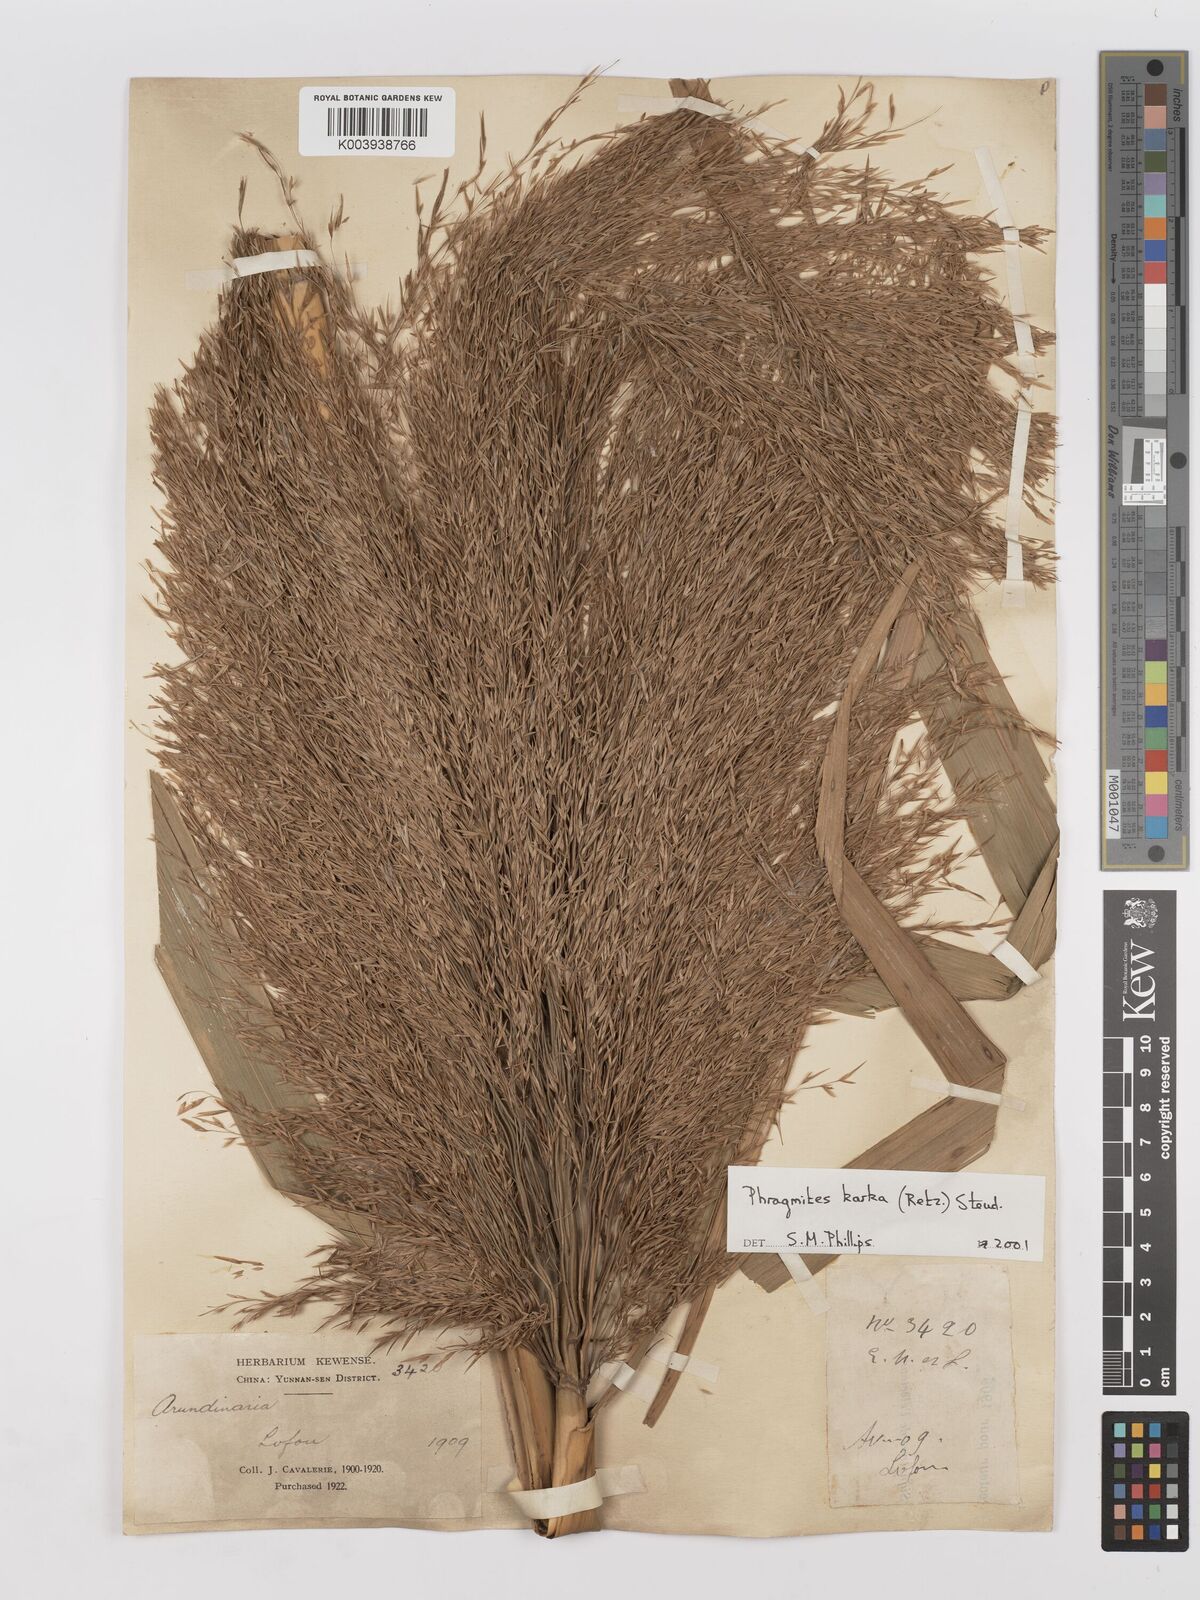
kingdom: Plantae
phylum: Tracheophyta
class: Liliopsida
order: Poales
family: Poaceae
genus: Phragmites
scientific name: Phragmites karka
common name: Tropical reed
